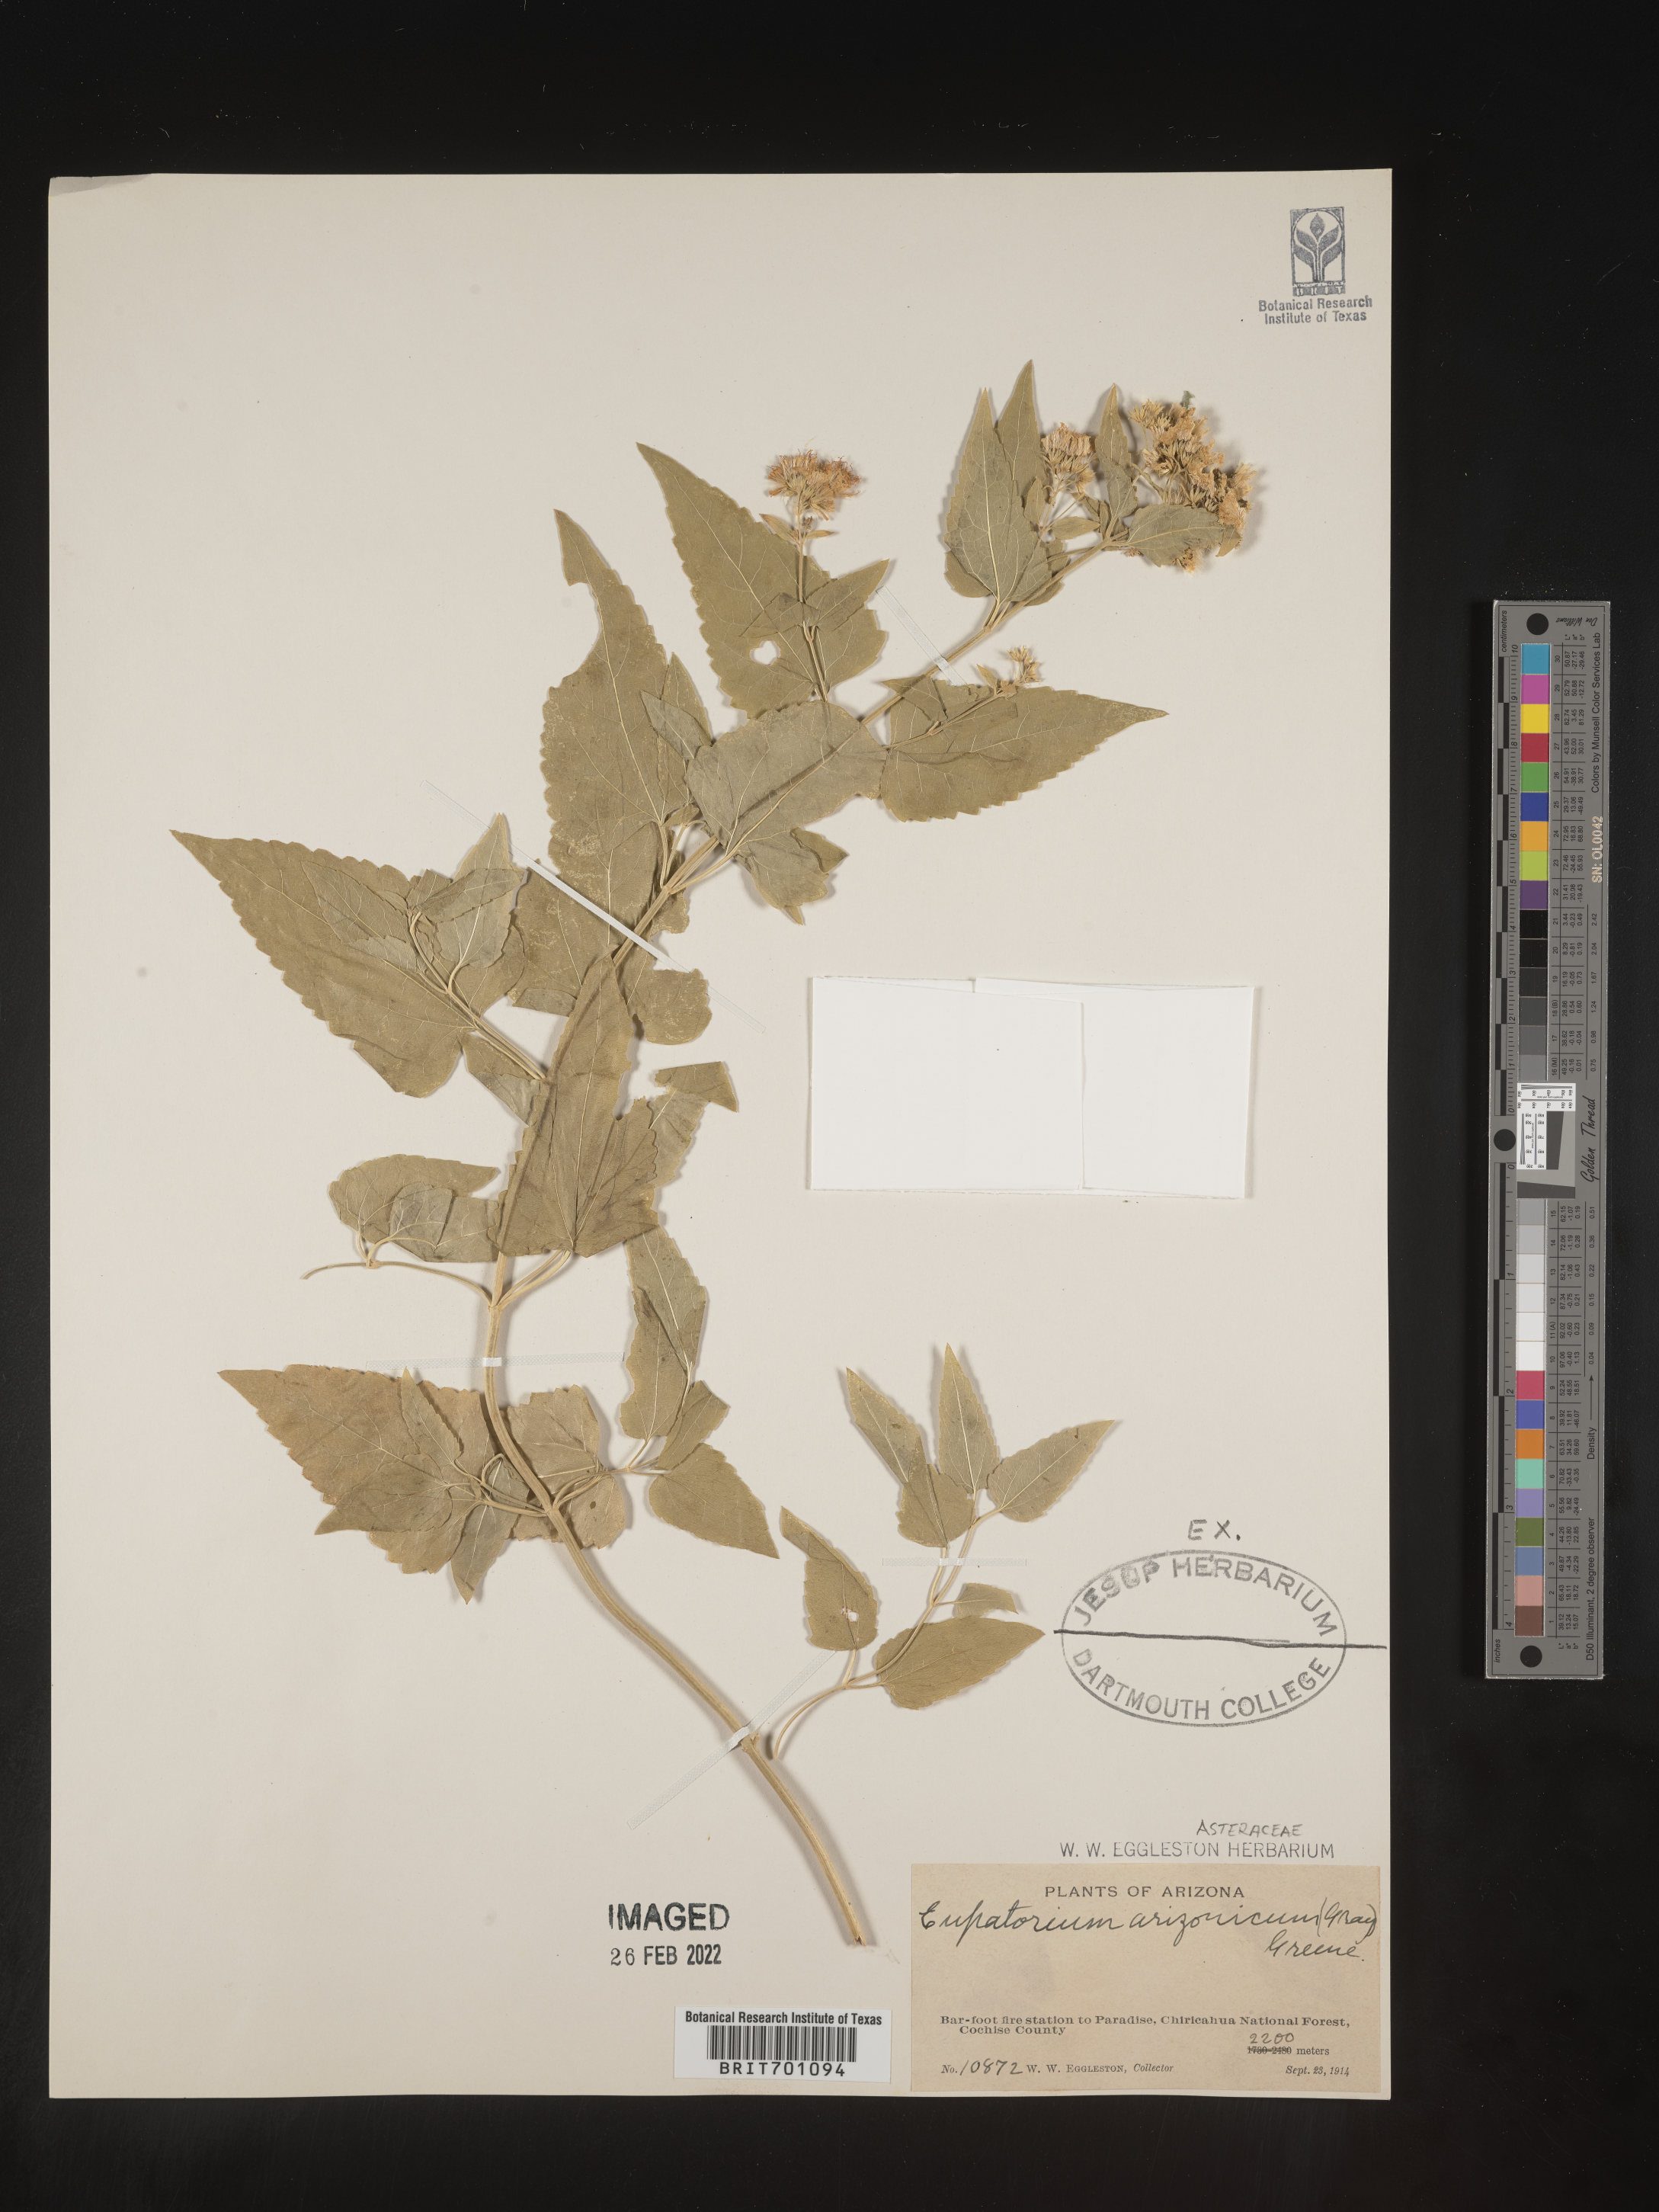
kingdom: Plantae
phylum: Tracheophyta
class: Magnoliopsida
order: Asterales
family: Asteraceae
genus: Eupatorium
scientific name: Eupatorium
